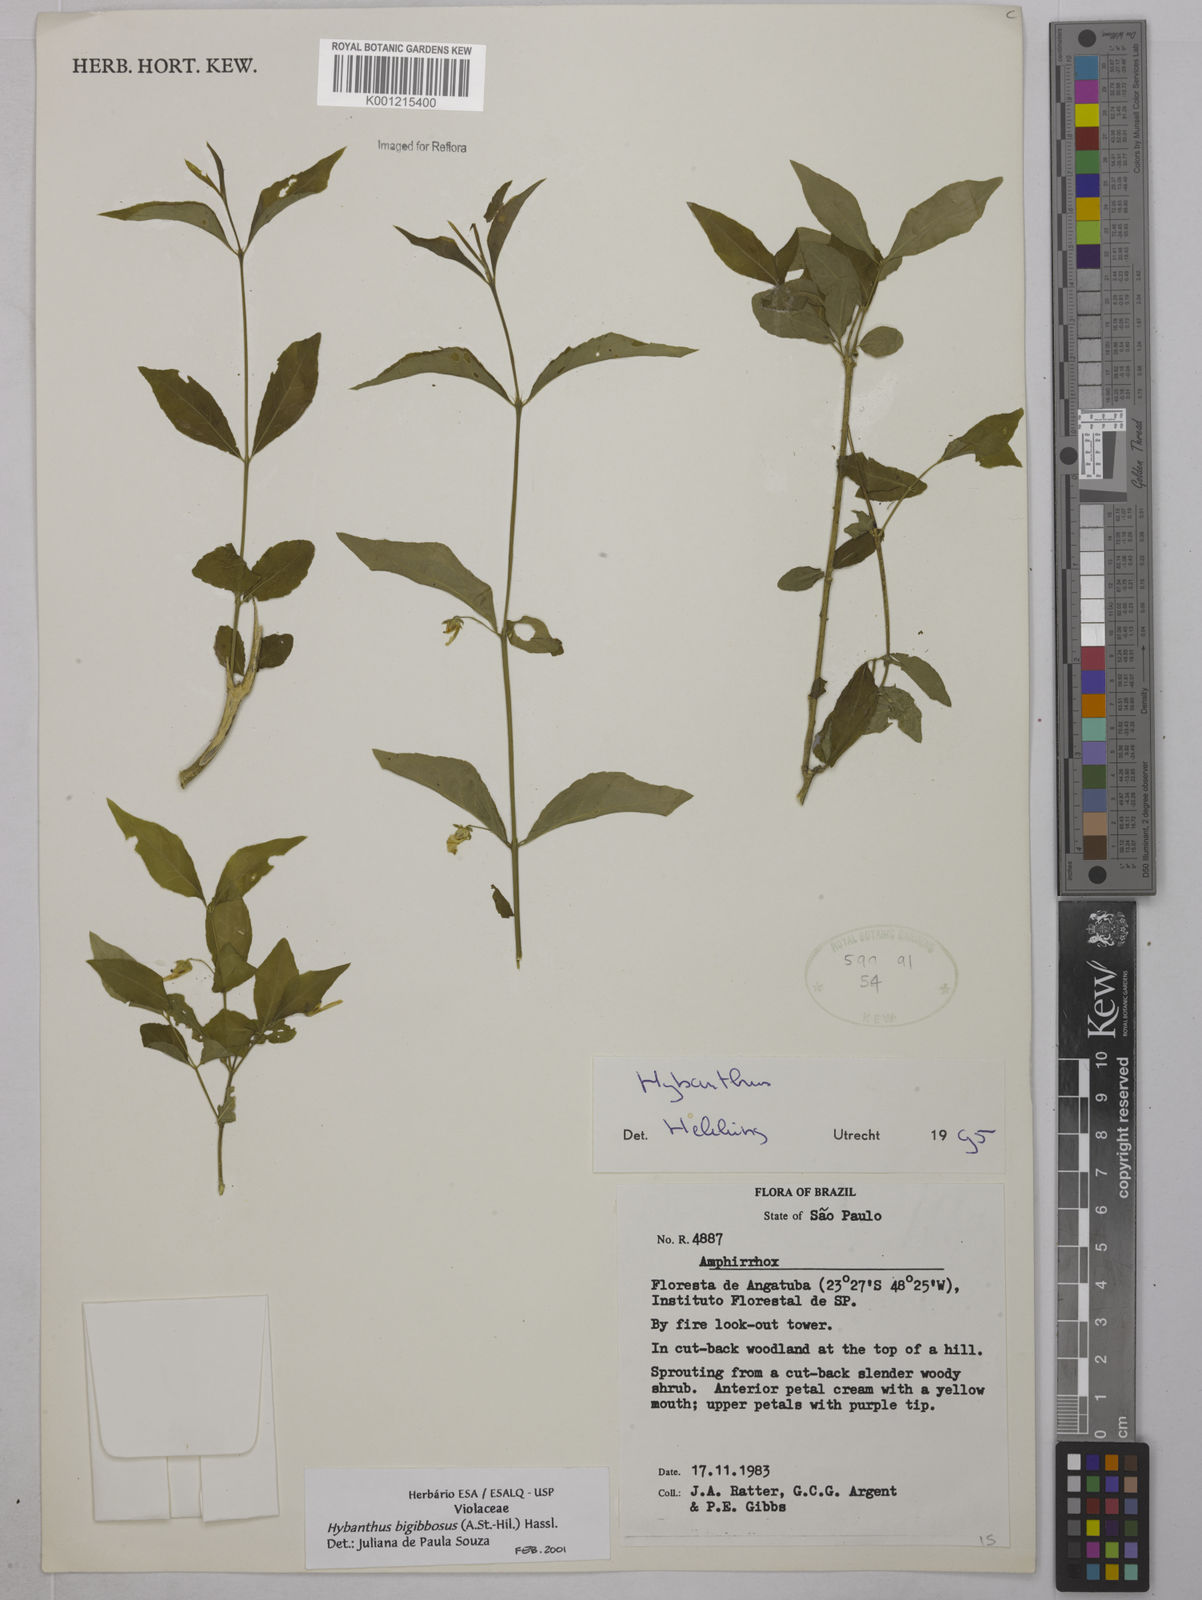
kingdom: Plantae
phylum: Tracheophyta
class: Magnoliopsida
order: Malpighiales
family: Violaceae
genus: Pombalia
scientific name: Pombalia bigibbosa
